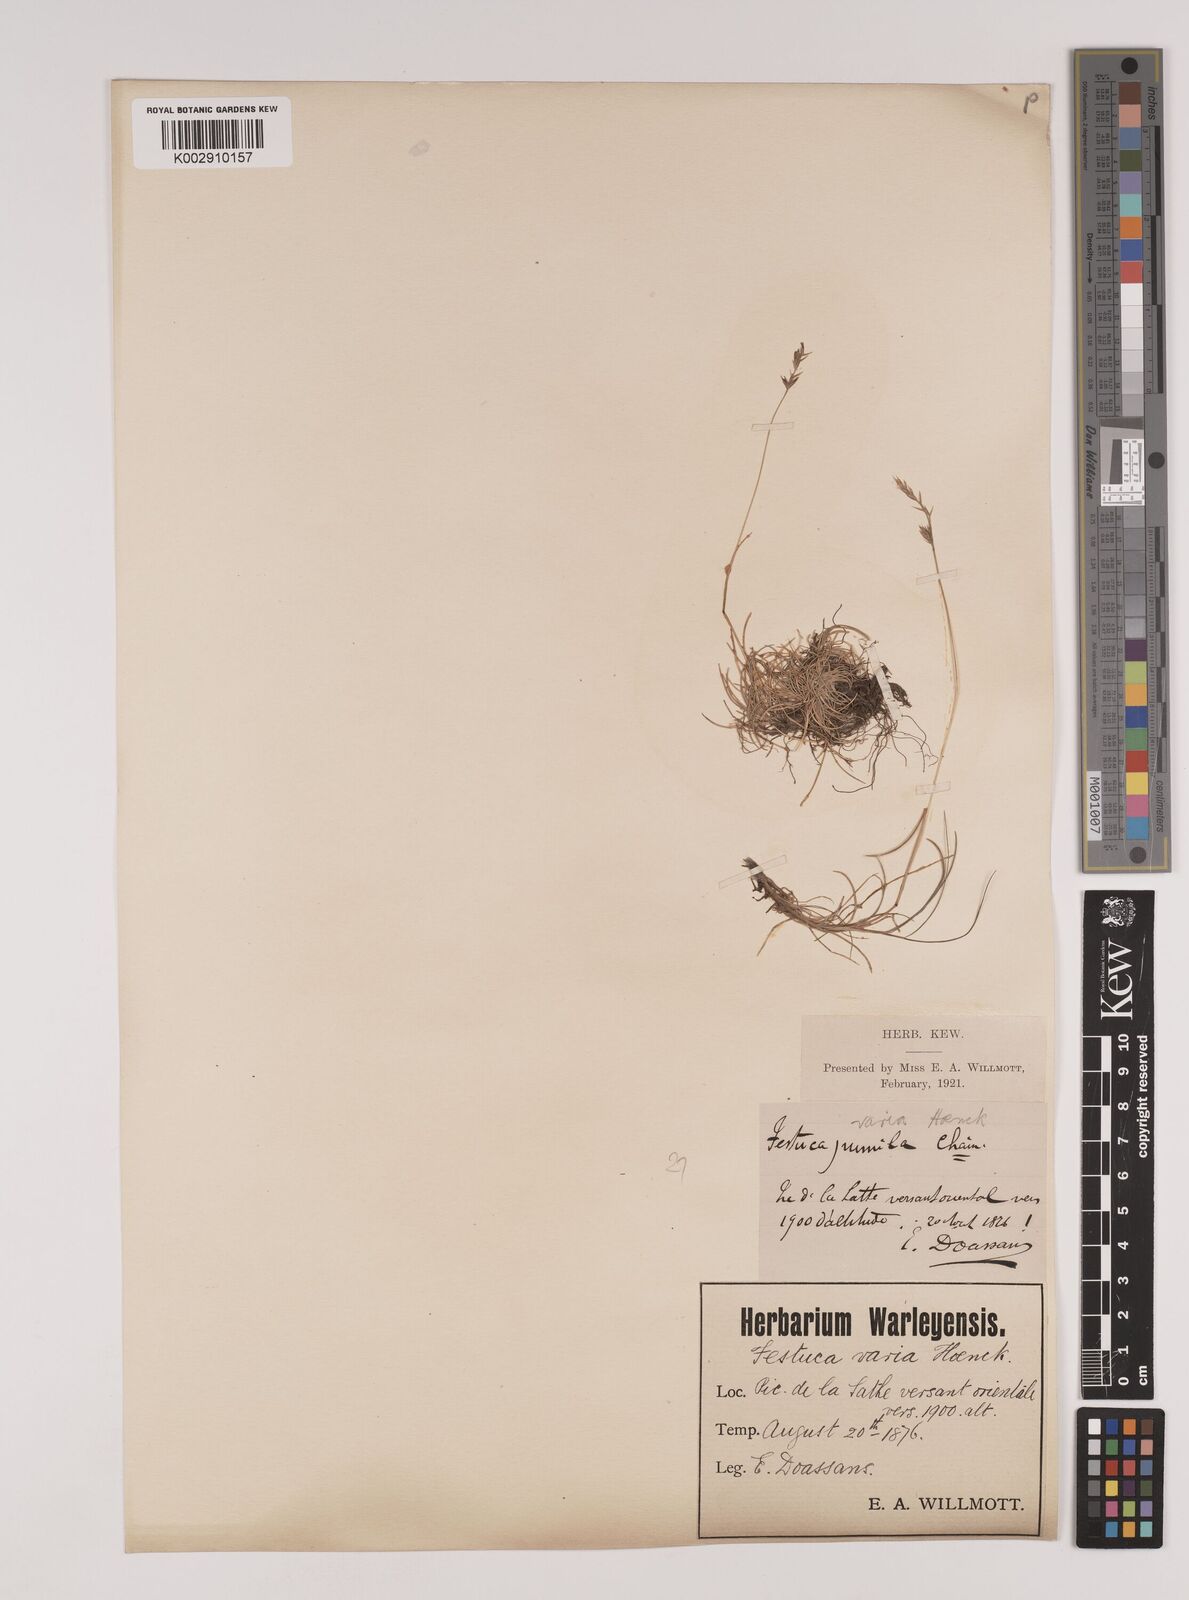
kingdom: Plantae
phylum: Tracheophyta
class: Liliopsida
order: Poales
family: Poaceae
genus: Festuca
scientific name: Festuca
